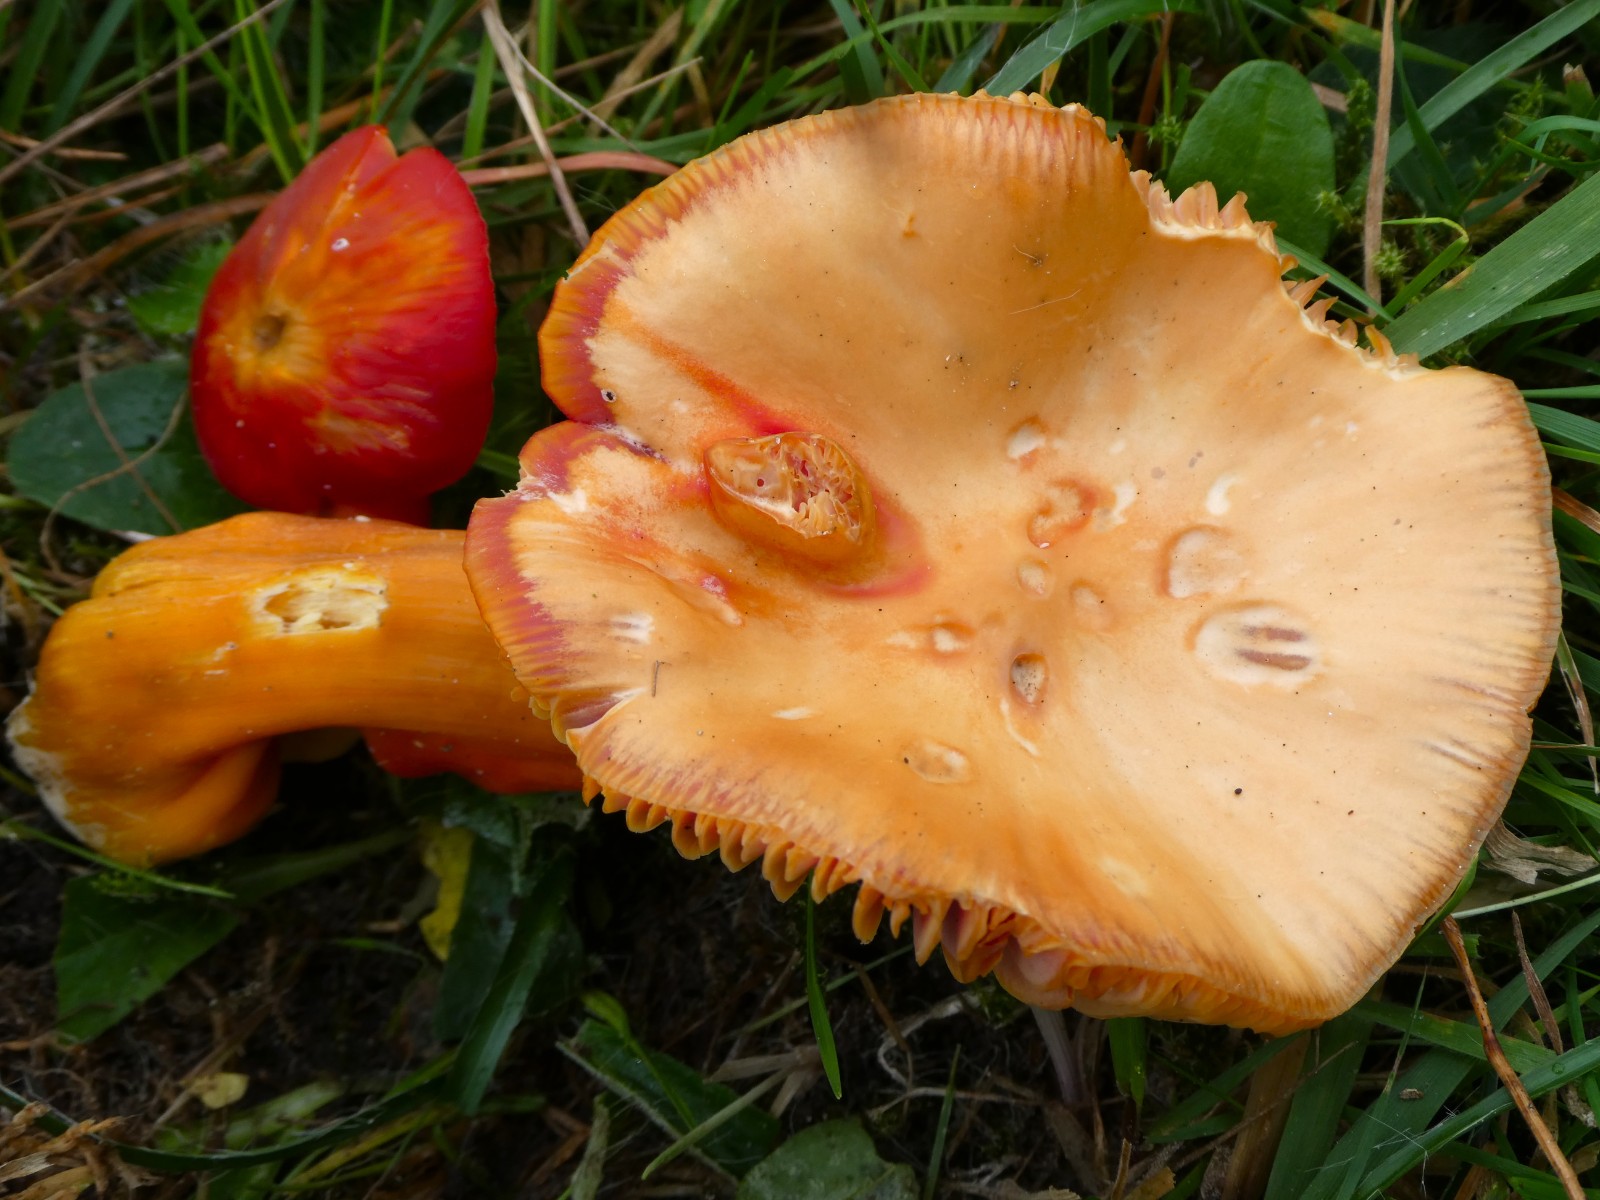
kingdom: Fungi
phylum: Basidiomycota
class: Agaricomycetes
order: Agaricales
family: Hygrophoraceae
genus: Hygrocybe
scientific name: Hygrocybe splendidissima
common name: knaldrød vokshat
